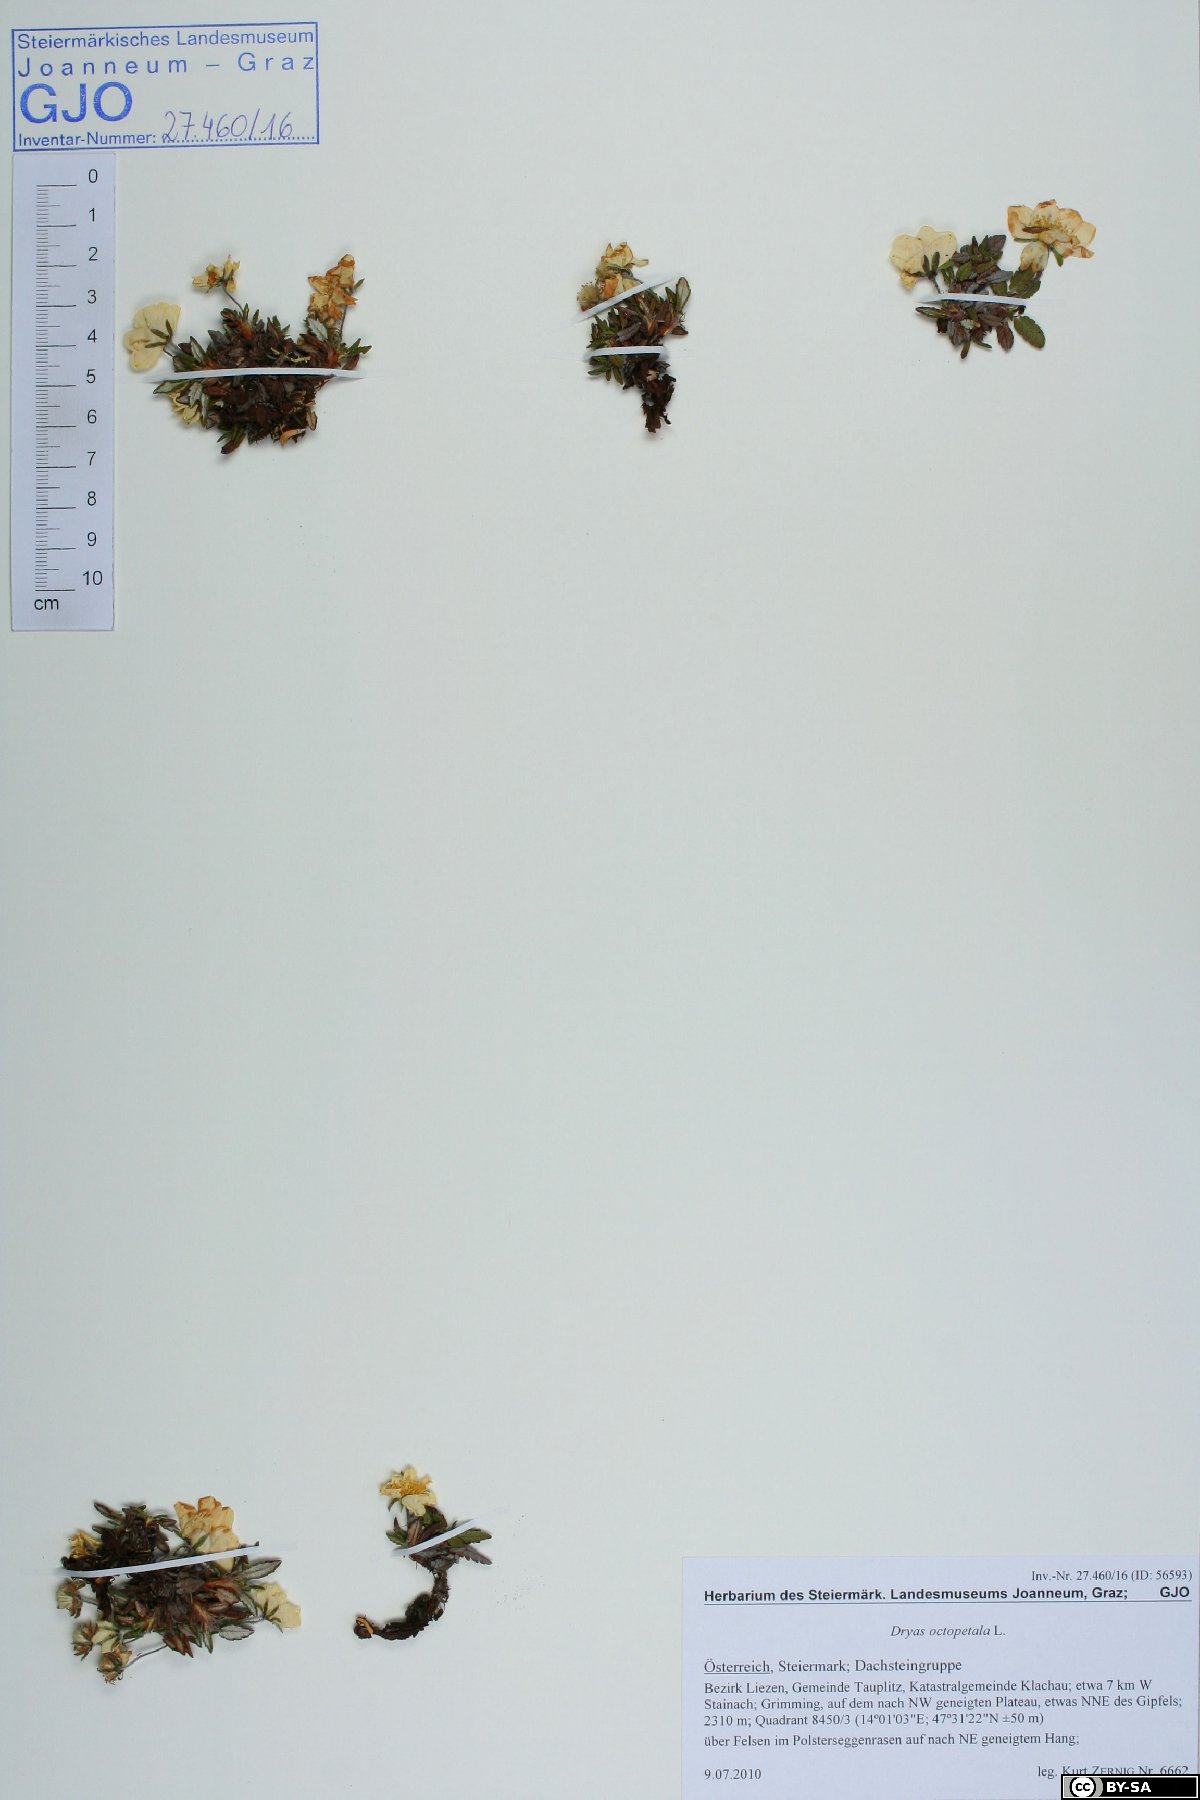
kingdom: Plantae
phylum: Tracheophyta
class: Magnoliopsida
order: Rosales
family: Rosaceae
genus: Dryas
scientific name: Dryas octopetala
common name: Eight-petal mountain-avens
